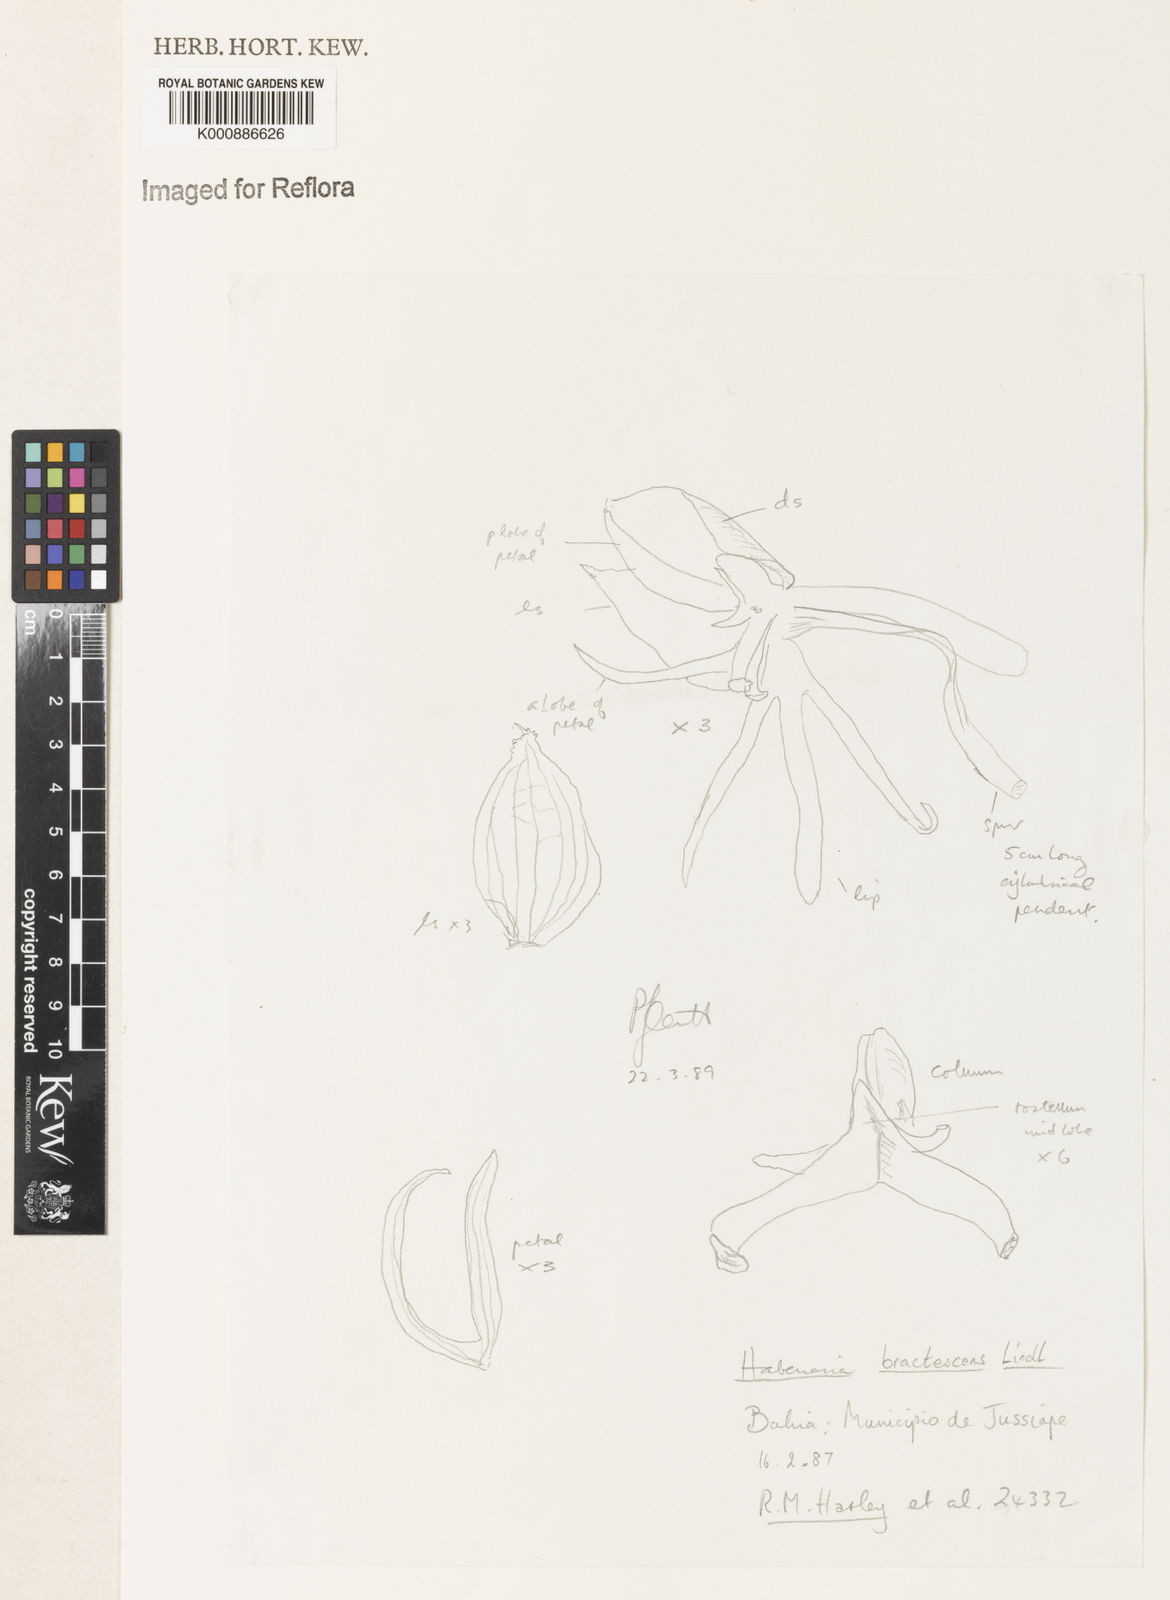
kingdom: Plantae
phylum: Tracheophyta
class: Liliopsida
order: Asparagales
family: Orchidaceae
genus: Habenaria
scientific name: Habenaria gourlieana
